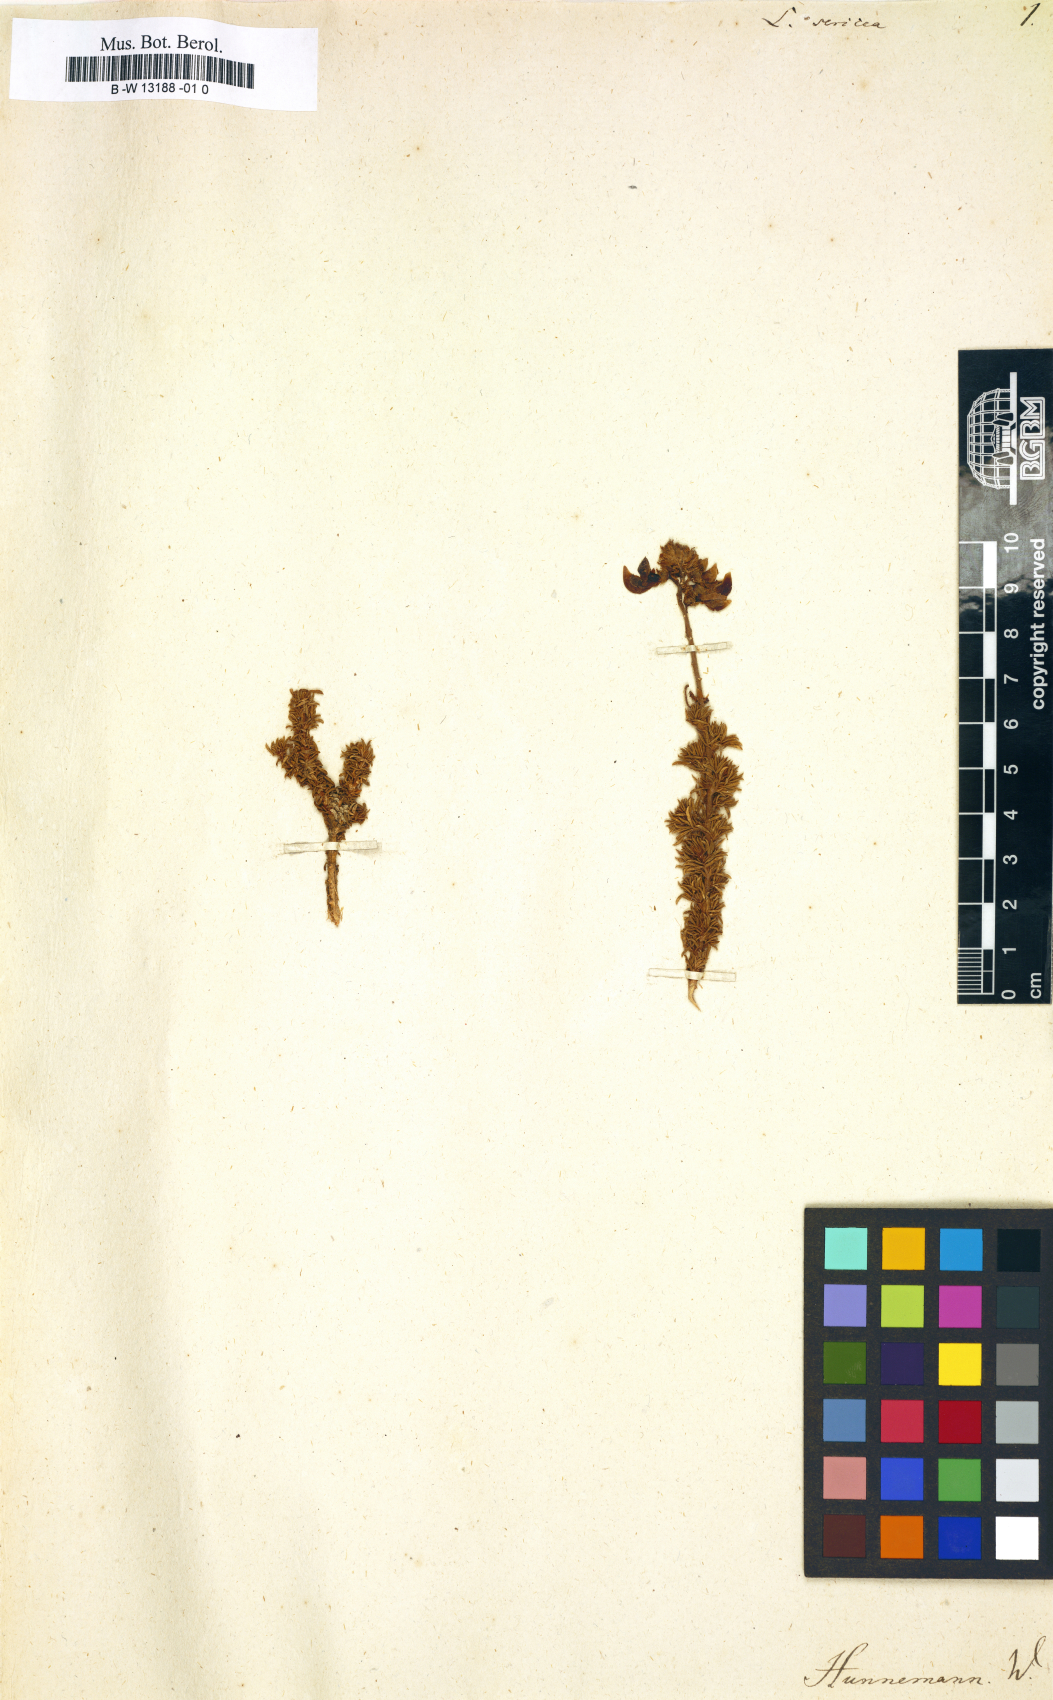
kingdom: Plantae
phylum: Tracheophyta
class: Magnoliopsida
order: Fabales
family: Fabaceae
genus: Calobota
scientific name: Calobota sericea
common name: Silver-pea
